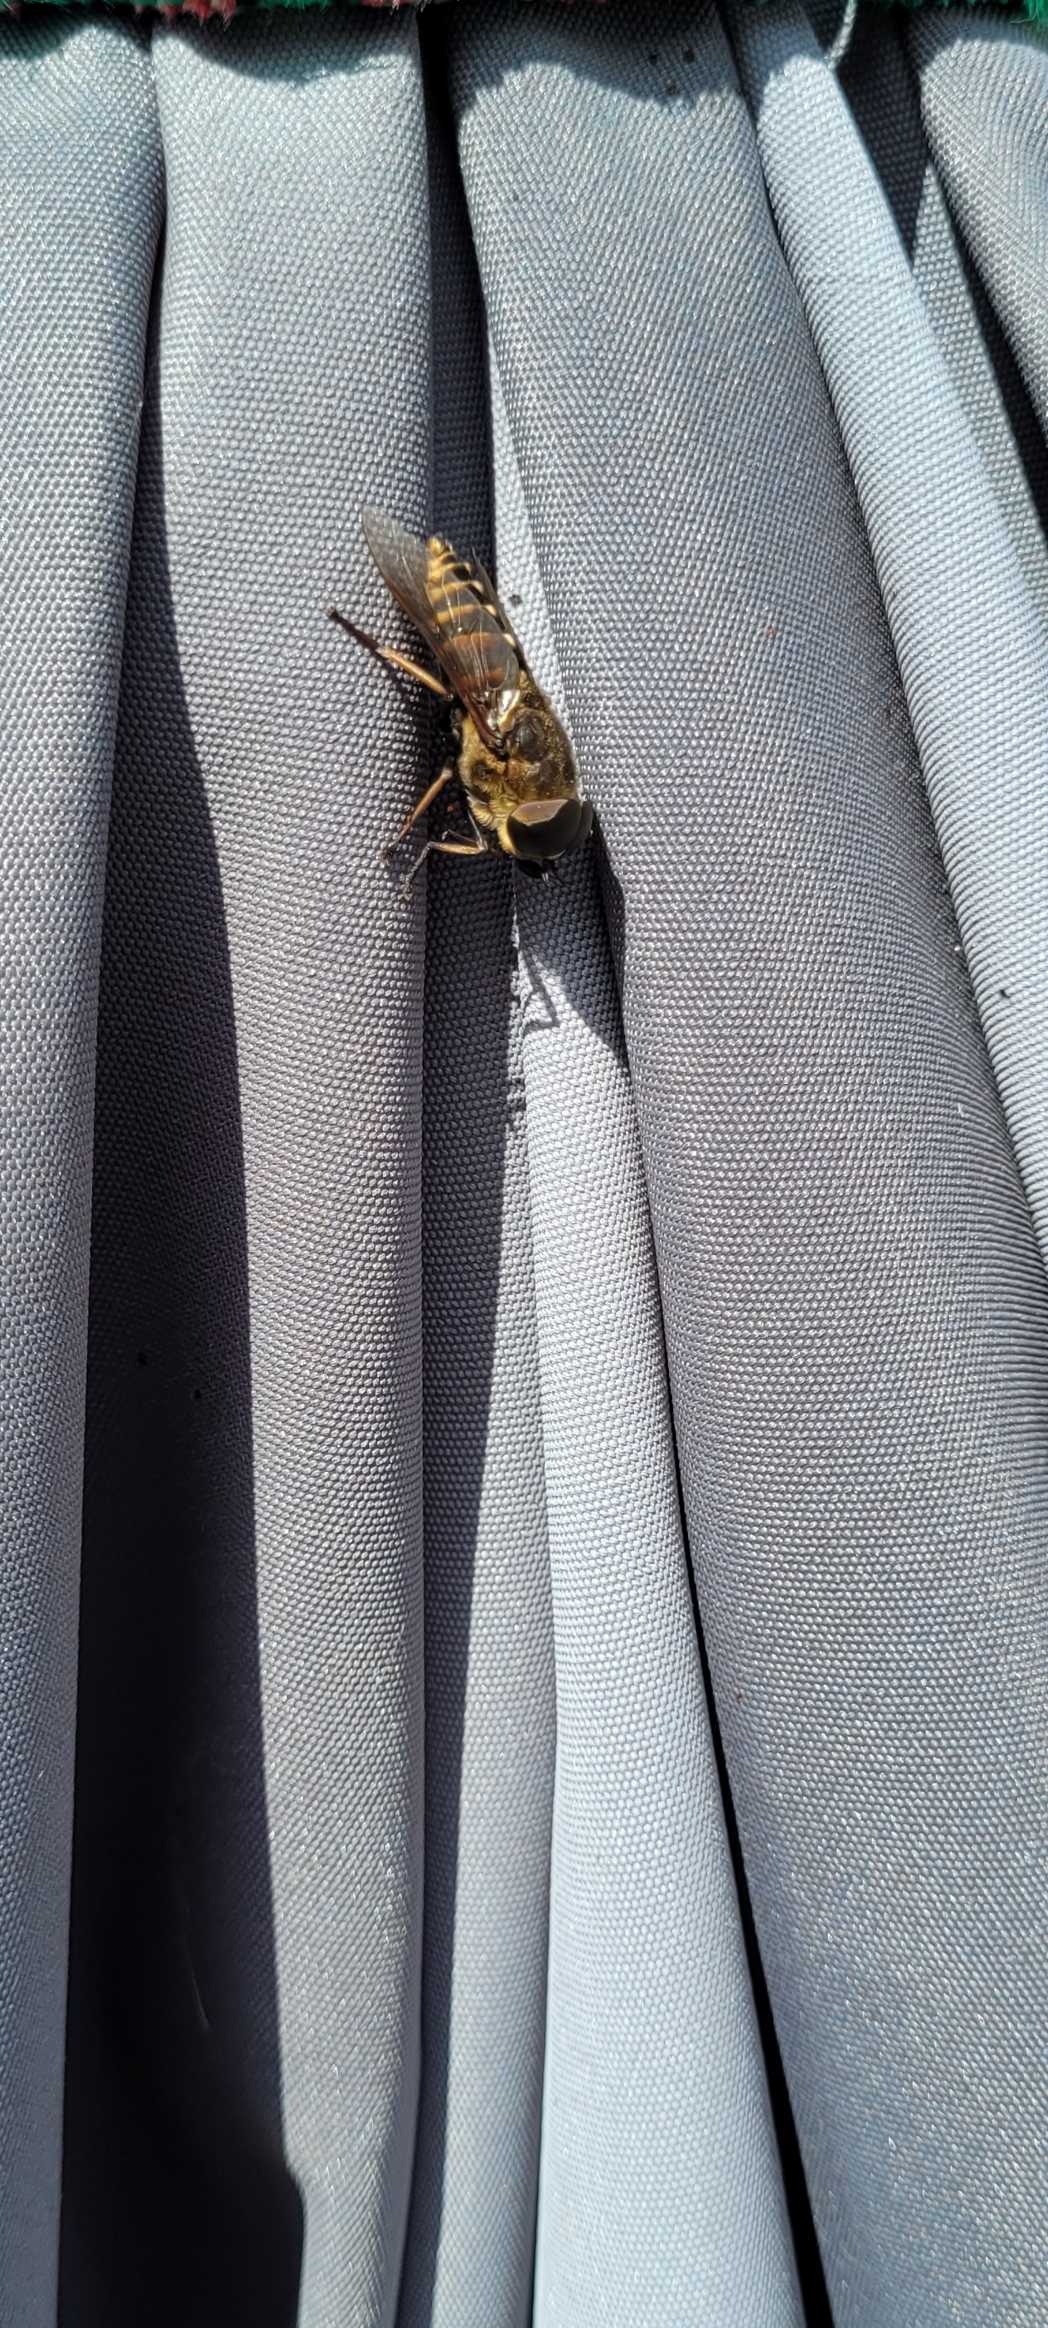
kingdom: Animalia
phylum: Arthropoda
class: Insecta
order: Diptera
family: Tabanidae
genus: Tabanus
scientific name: Tabanus sudeticus
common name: Hesteklæg
